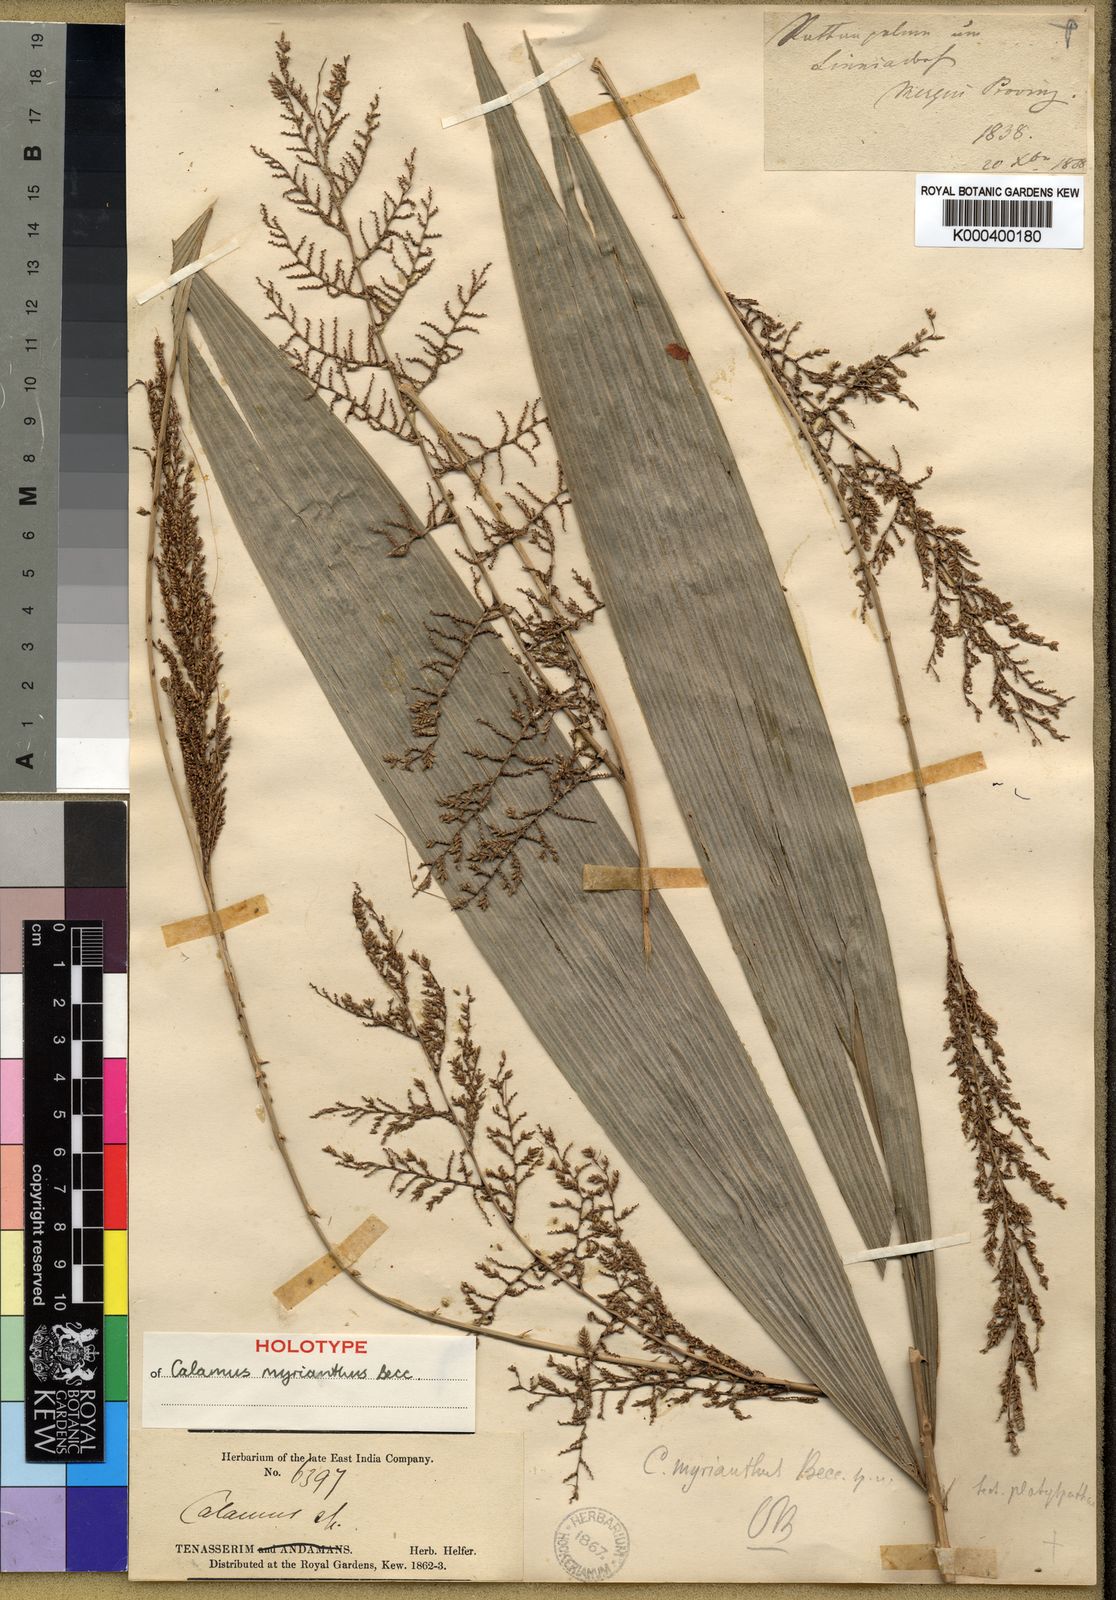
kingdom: Plantae
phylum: Tracheophyta
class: Liliopsida
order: Arecales
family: Arecaceae
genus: Calamus
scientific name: Calamus myrianthus
